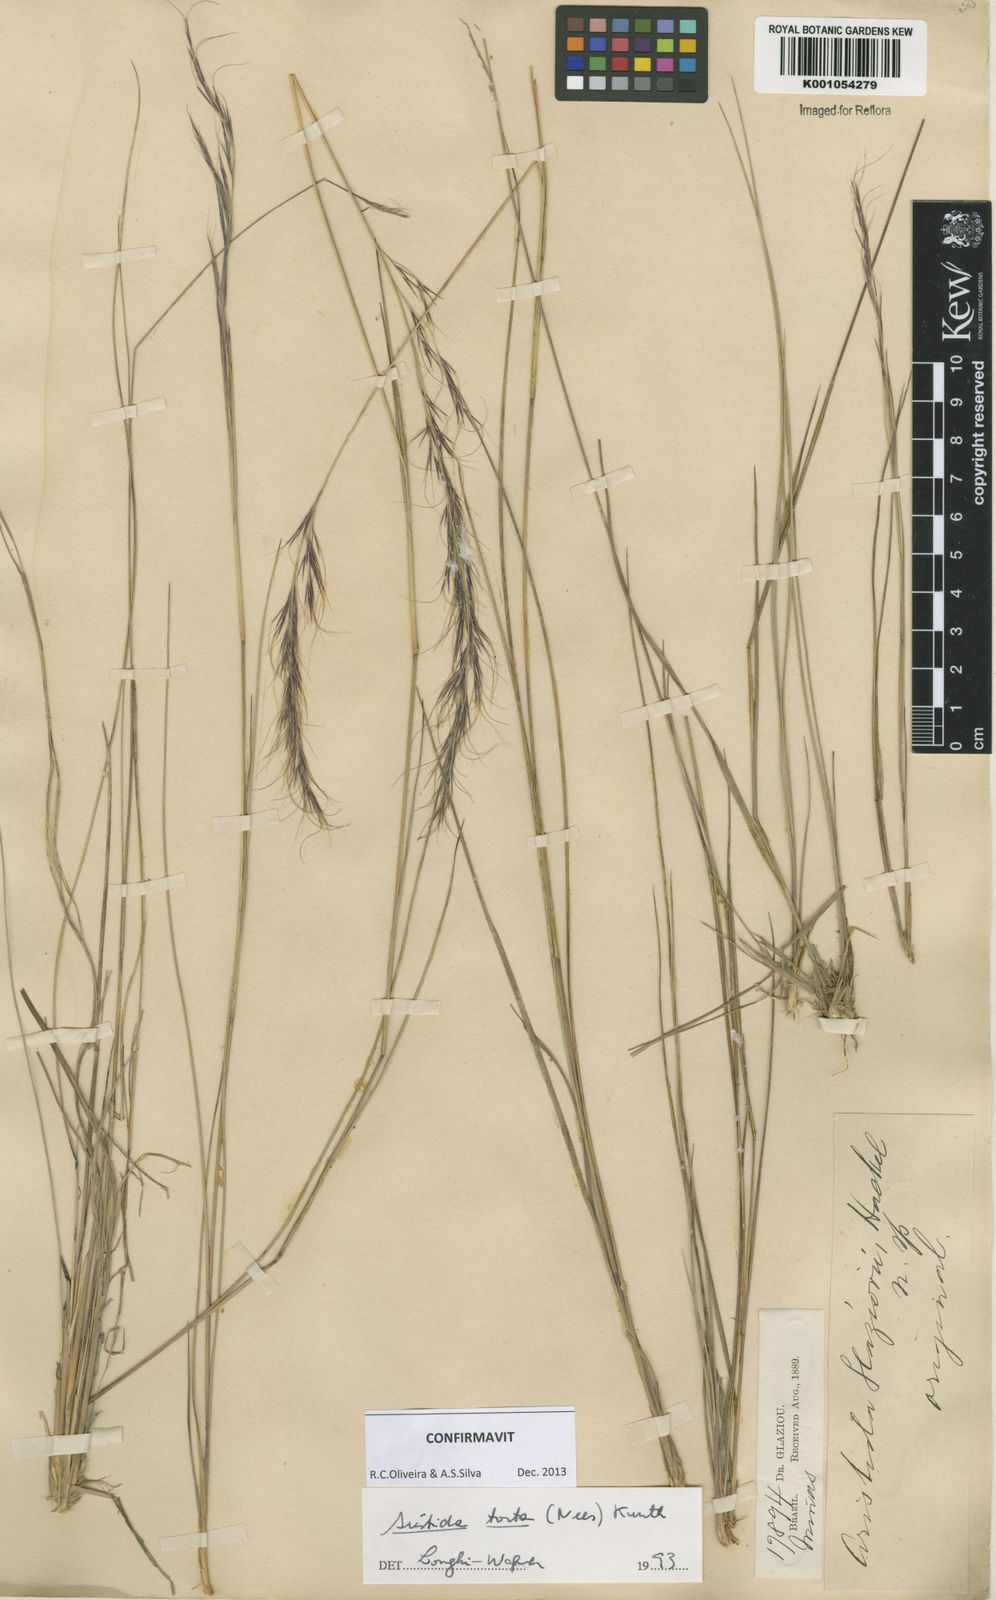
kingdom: Plantae
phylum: Tracheophyta
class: Liliopsida
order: Poales
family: Poaceae
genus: Aristida
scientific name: Aristida torta
